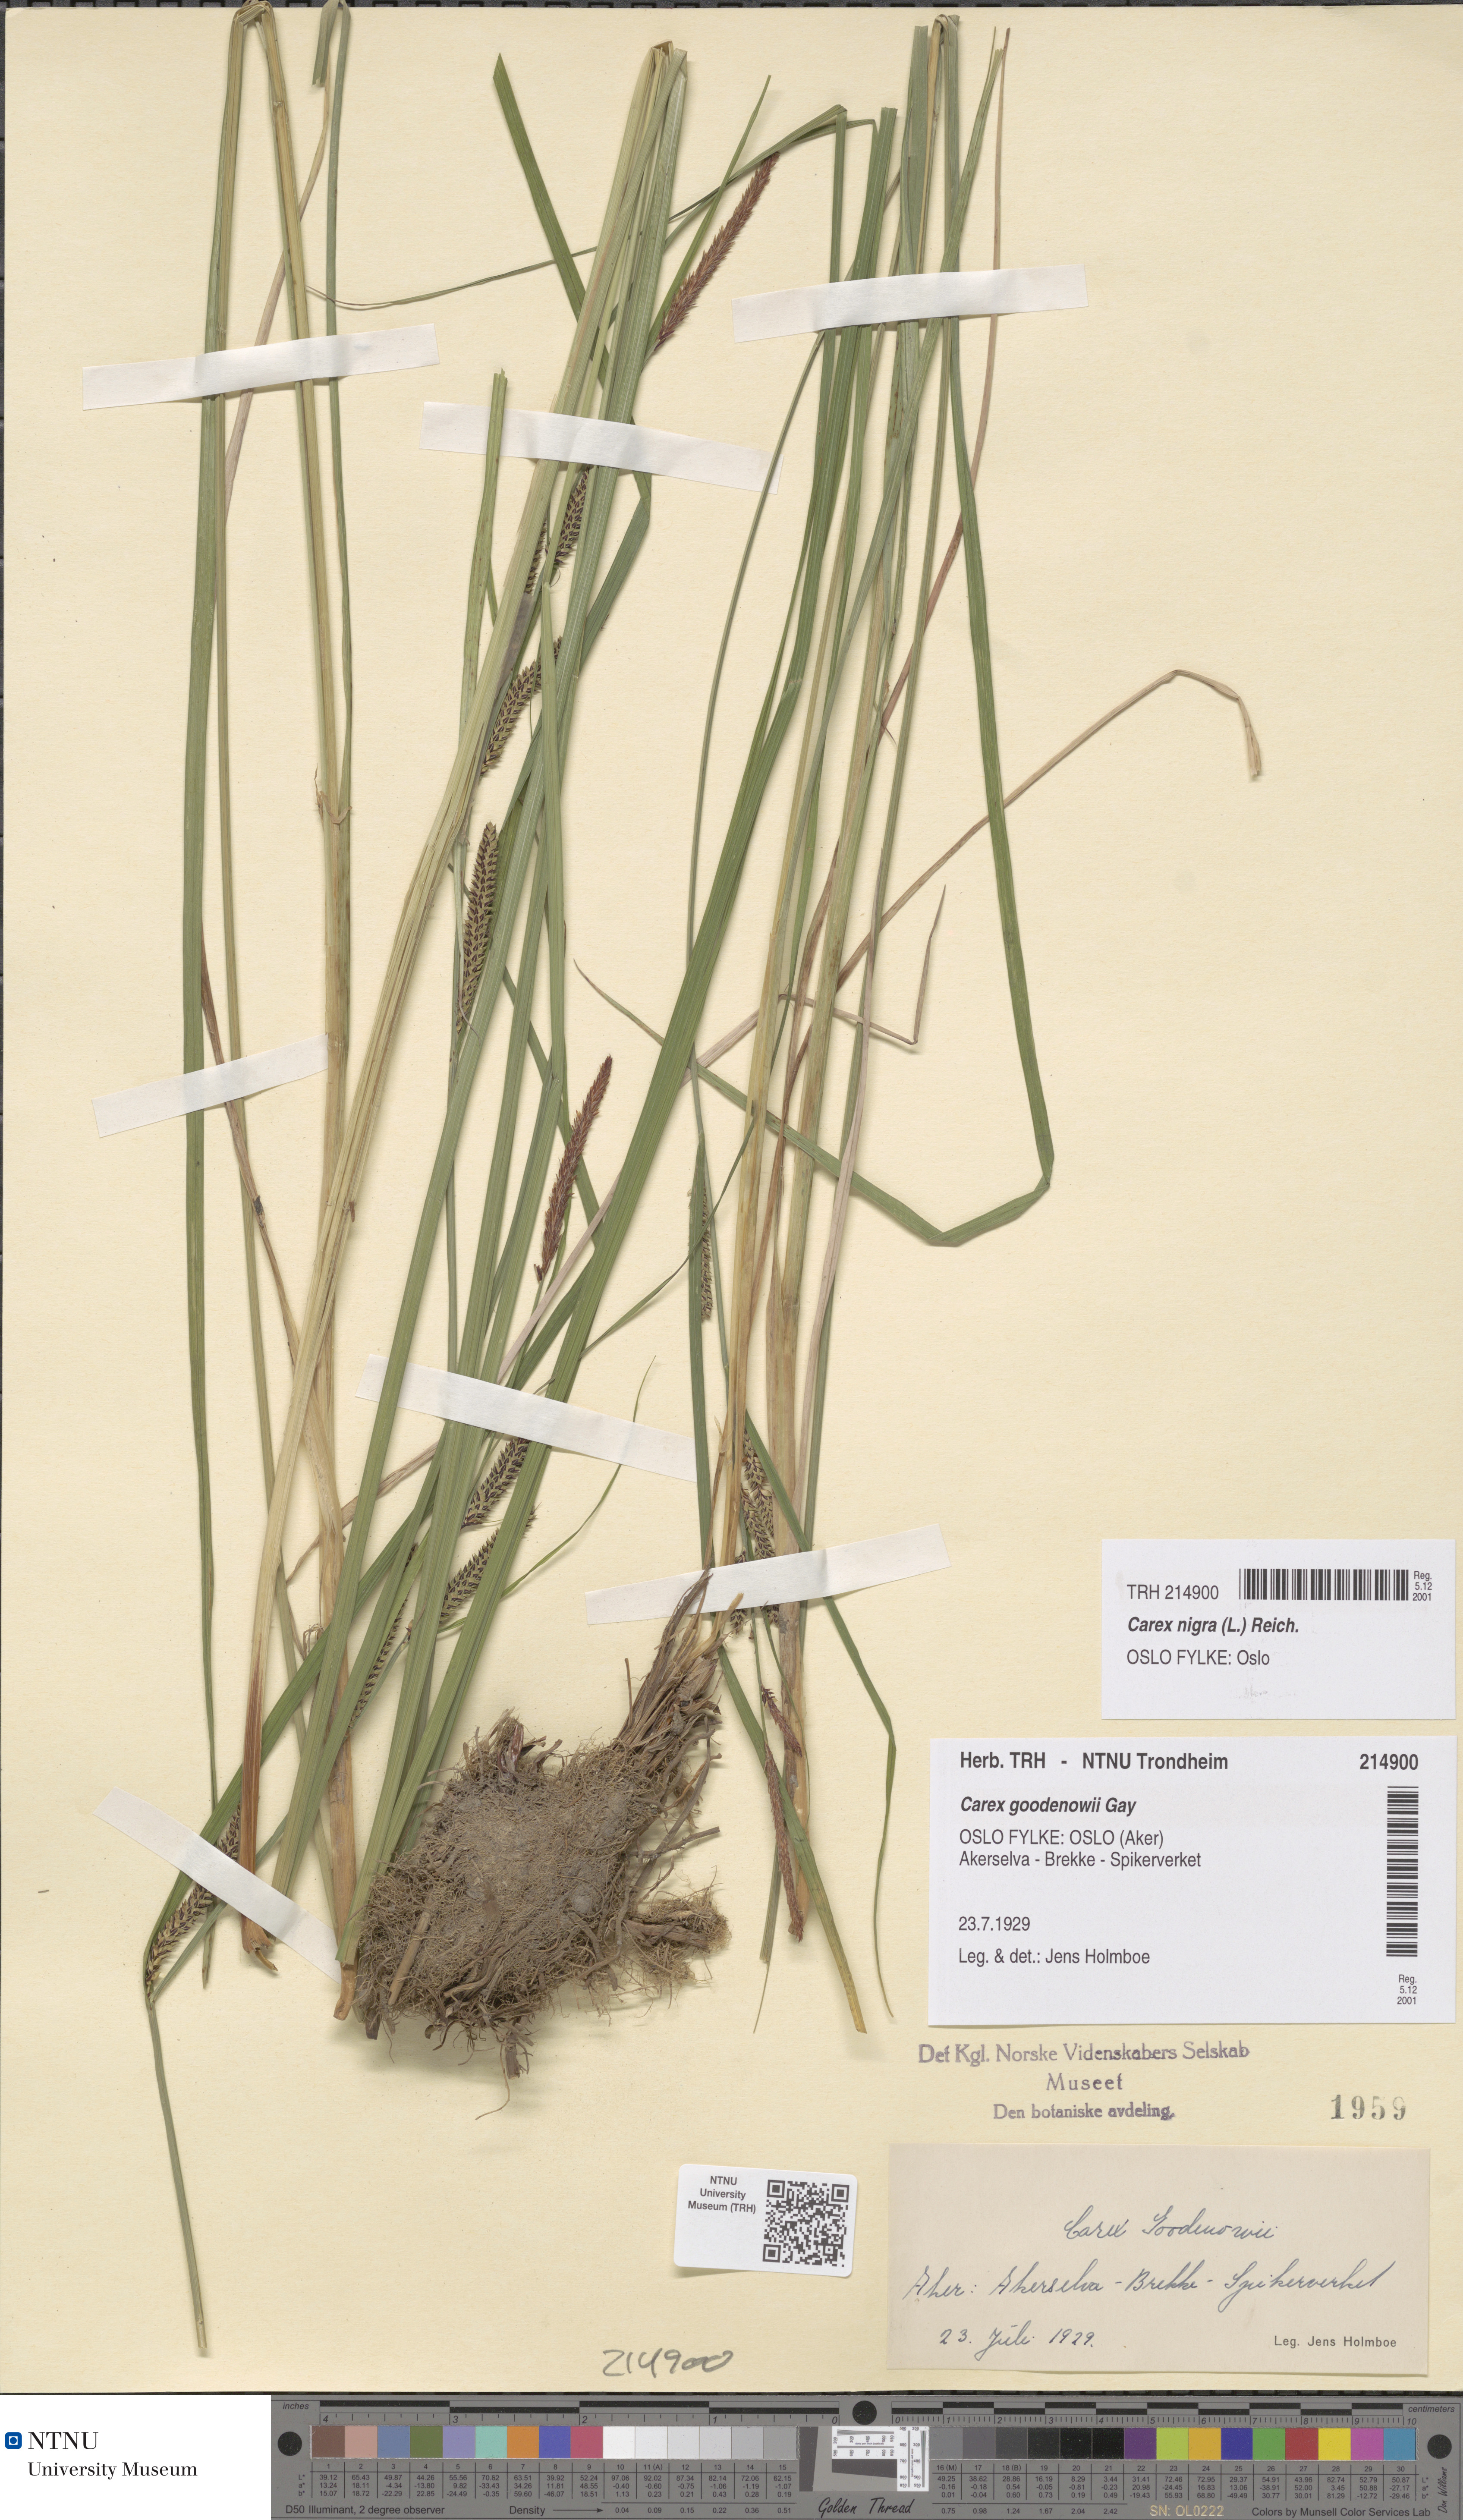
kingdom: Plantae
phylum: Tracheophyta
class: Liliopsida
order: Poales
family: Cyperaceae
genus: Carex
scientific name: Carex nigra
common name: Common sedge
